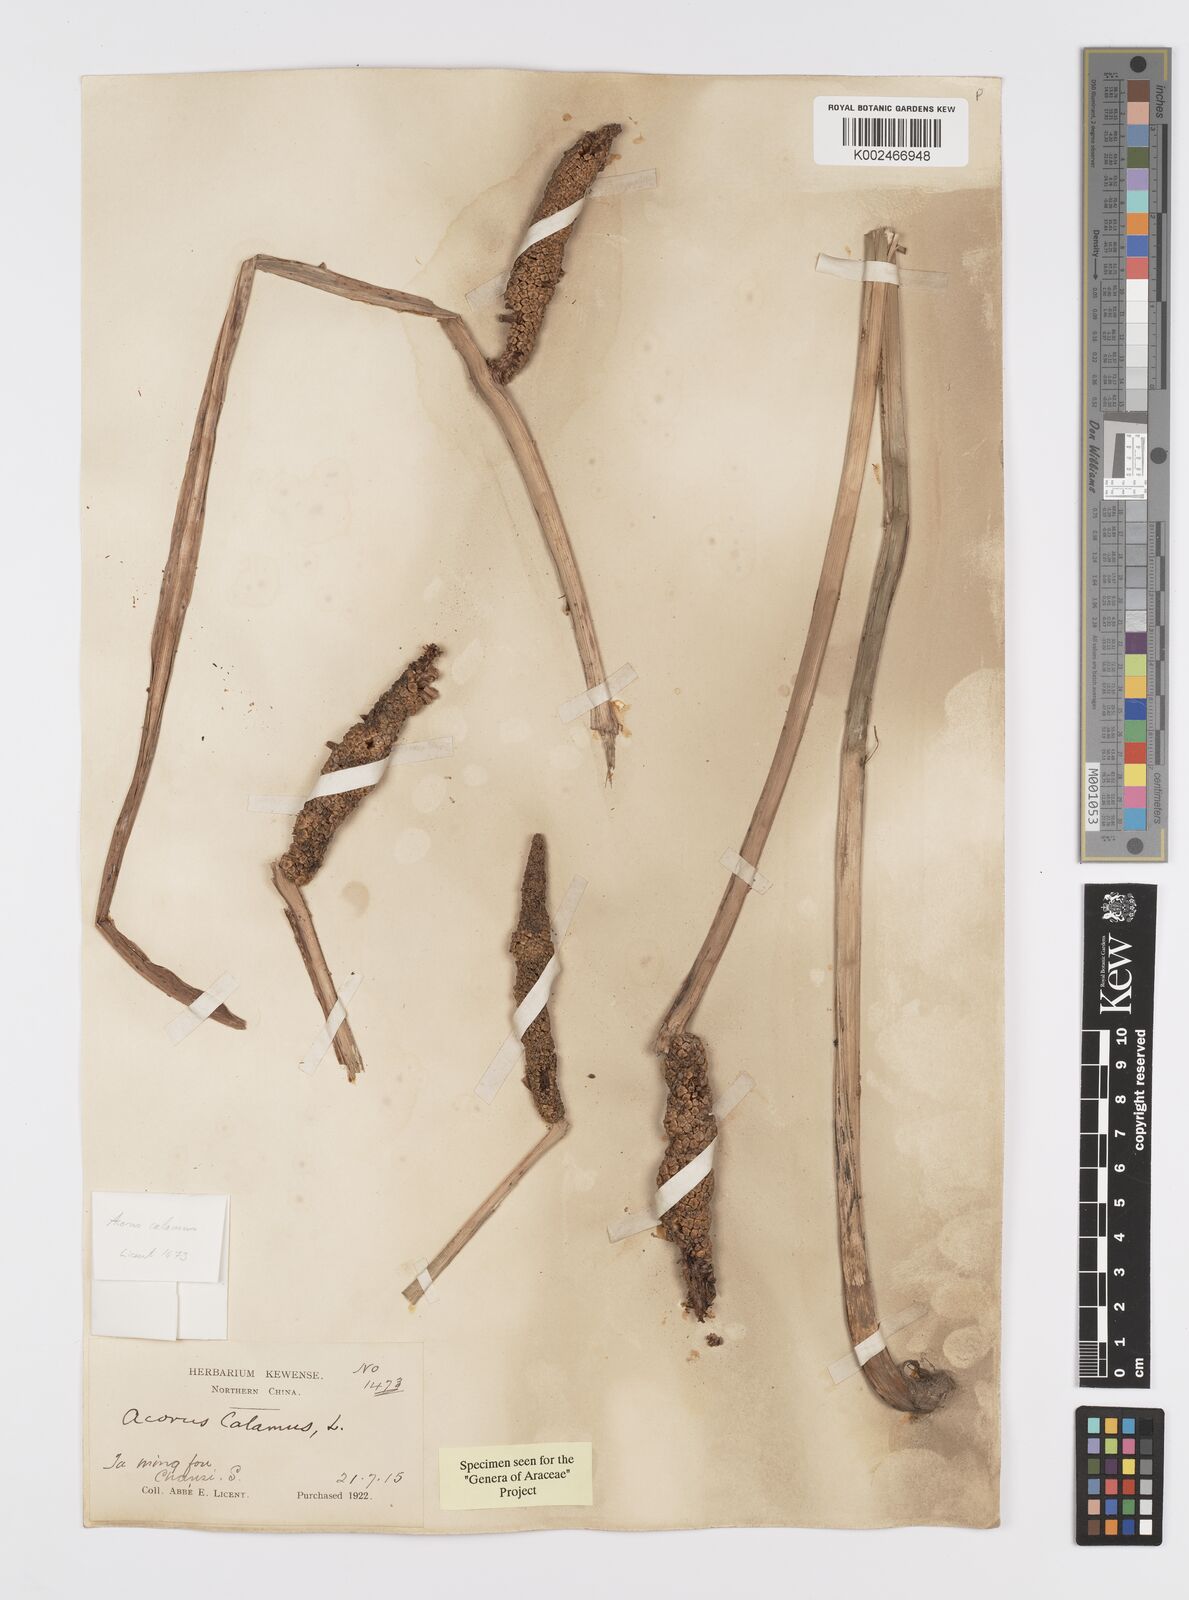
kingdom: Plantae
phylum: Tracheophyta
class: Liliopsida
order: Acorales
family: Acoraceae
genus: Acorus
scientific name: Acorus calamus
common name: Sweet-flag
